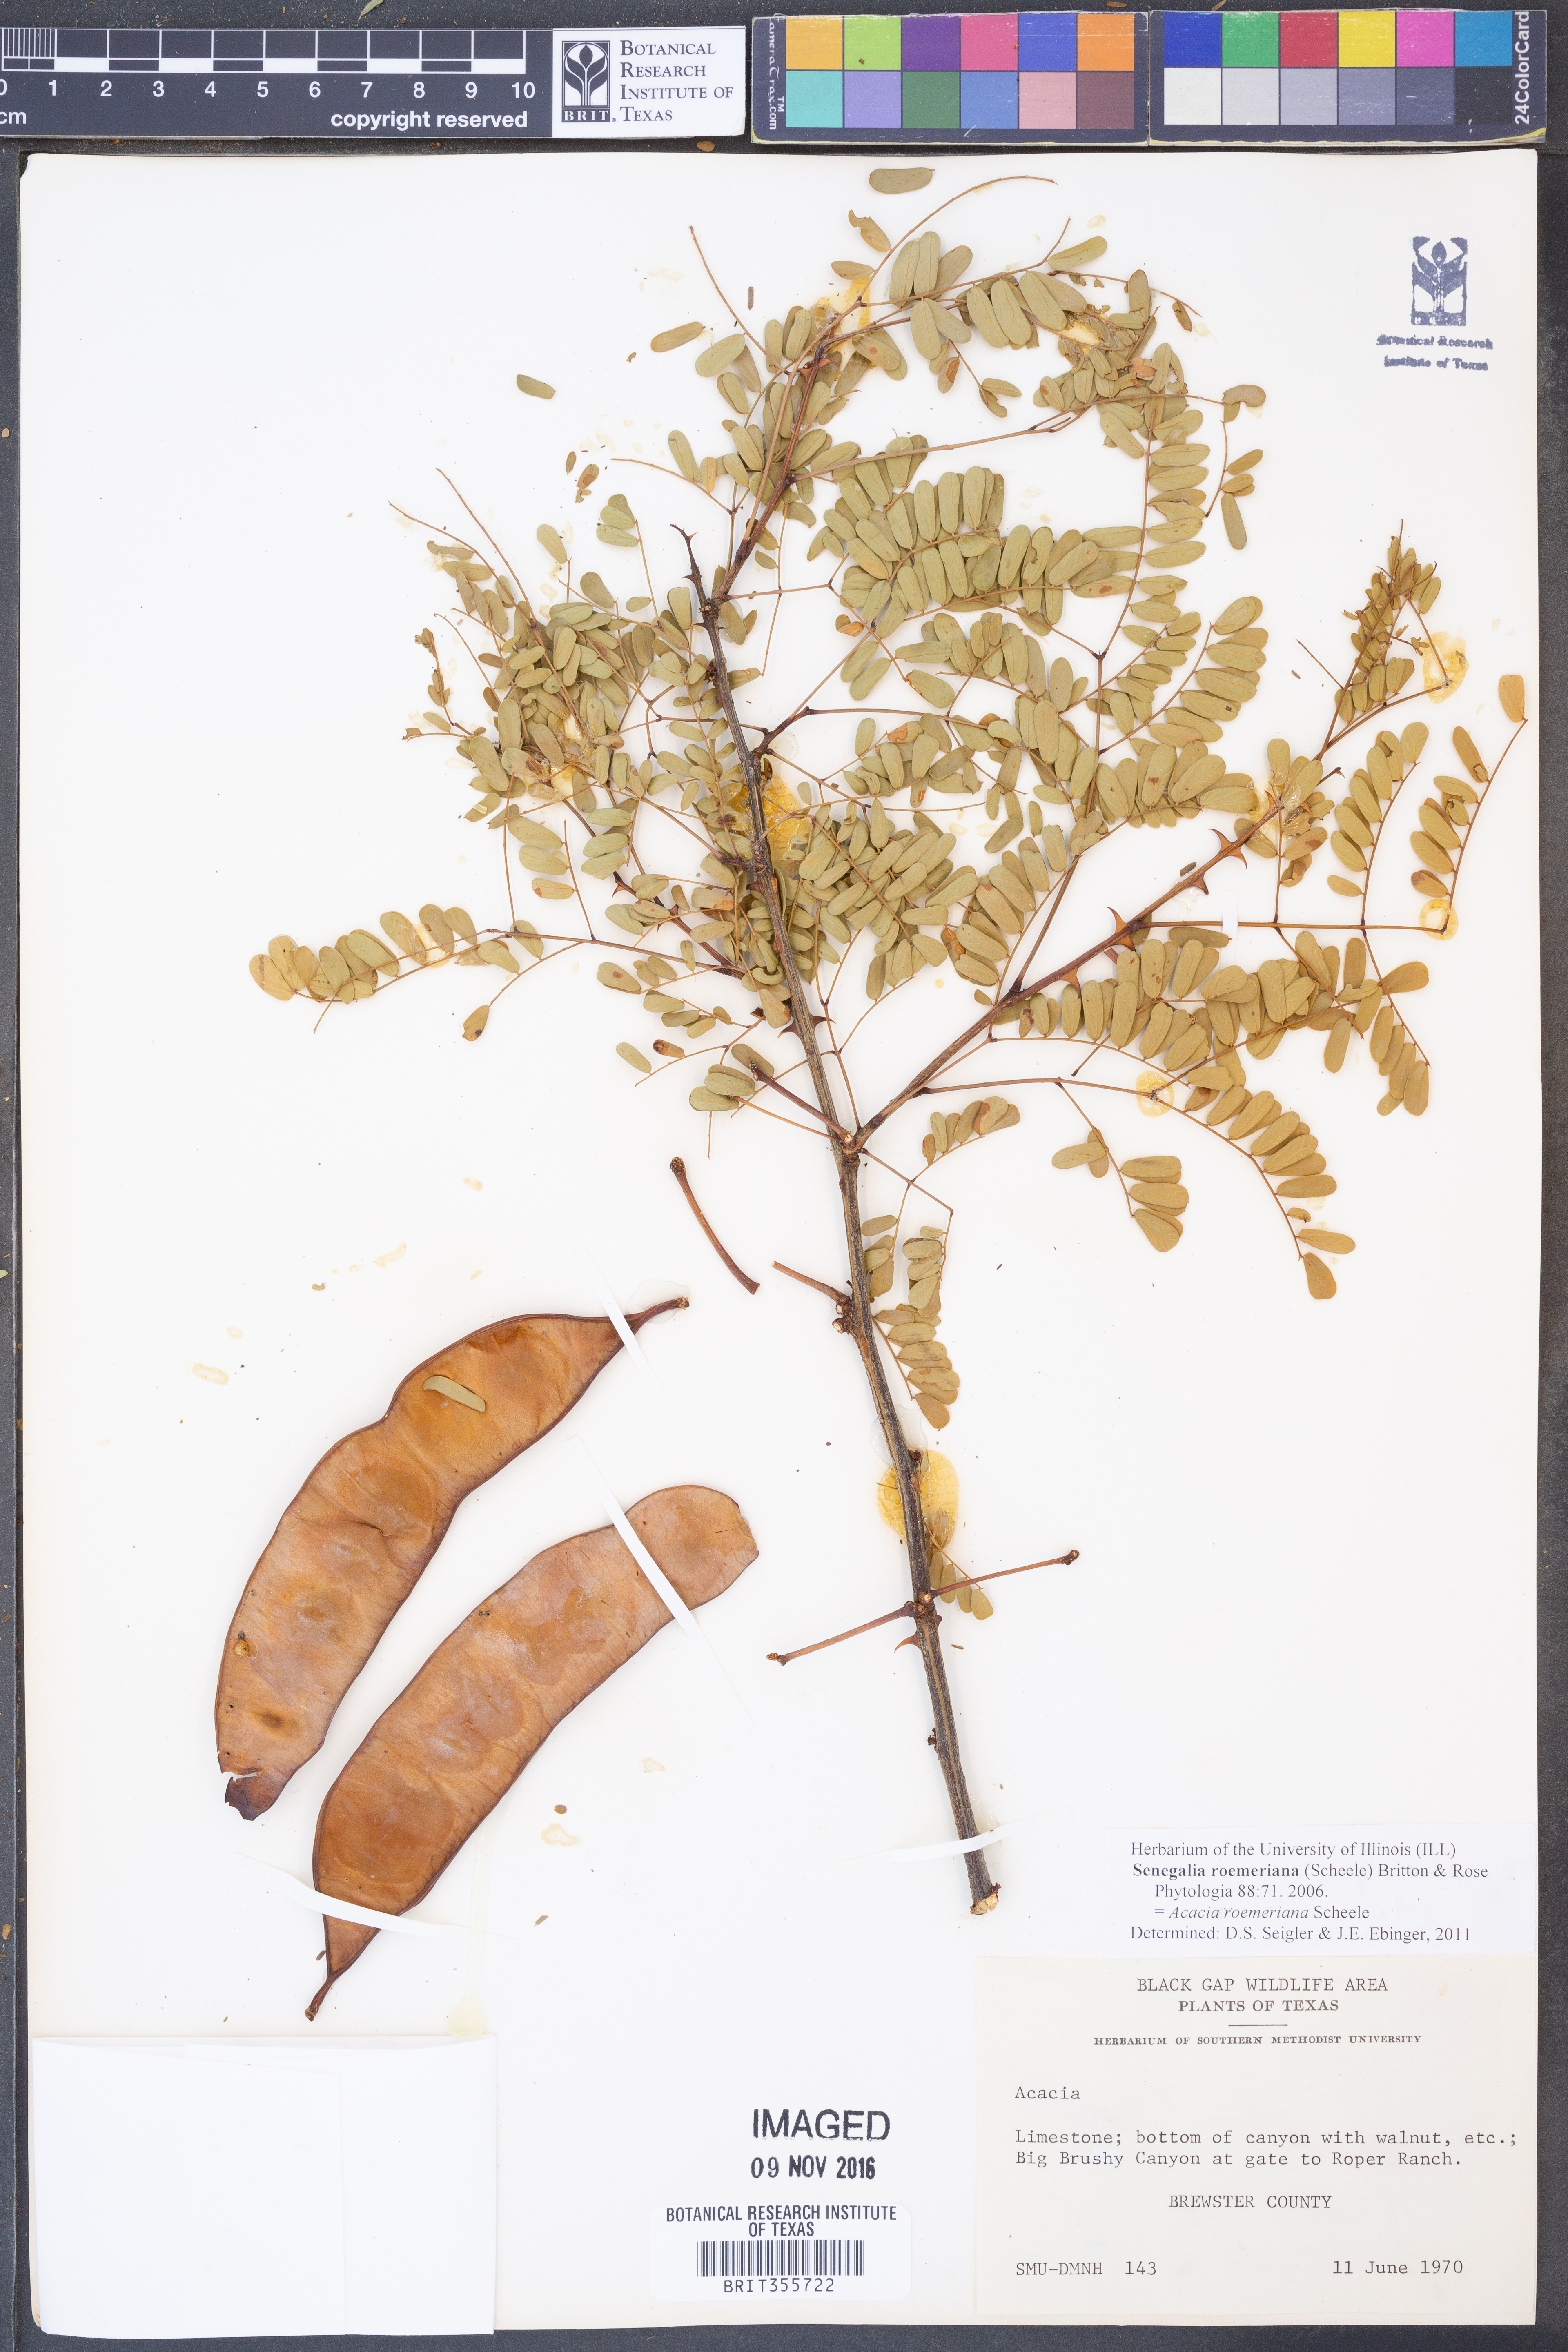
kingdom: Plantae
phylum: Tracheophyta
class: Magnoliopsida
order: Fabales
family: Fabaceae
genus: Senegalia
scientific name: Senegalia roemeriana
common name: Roemer's acacia
